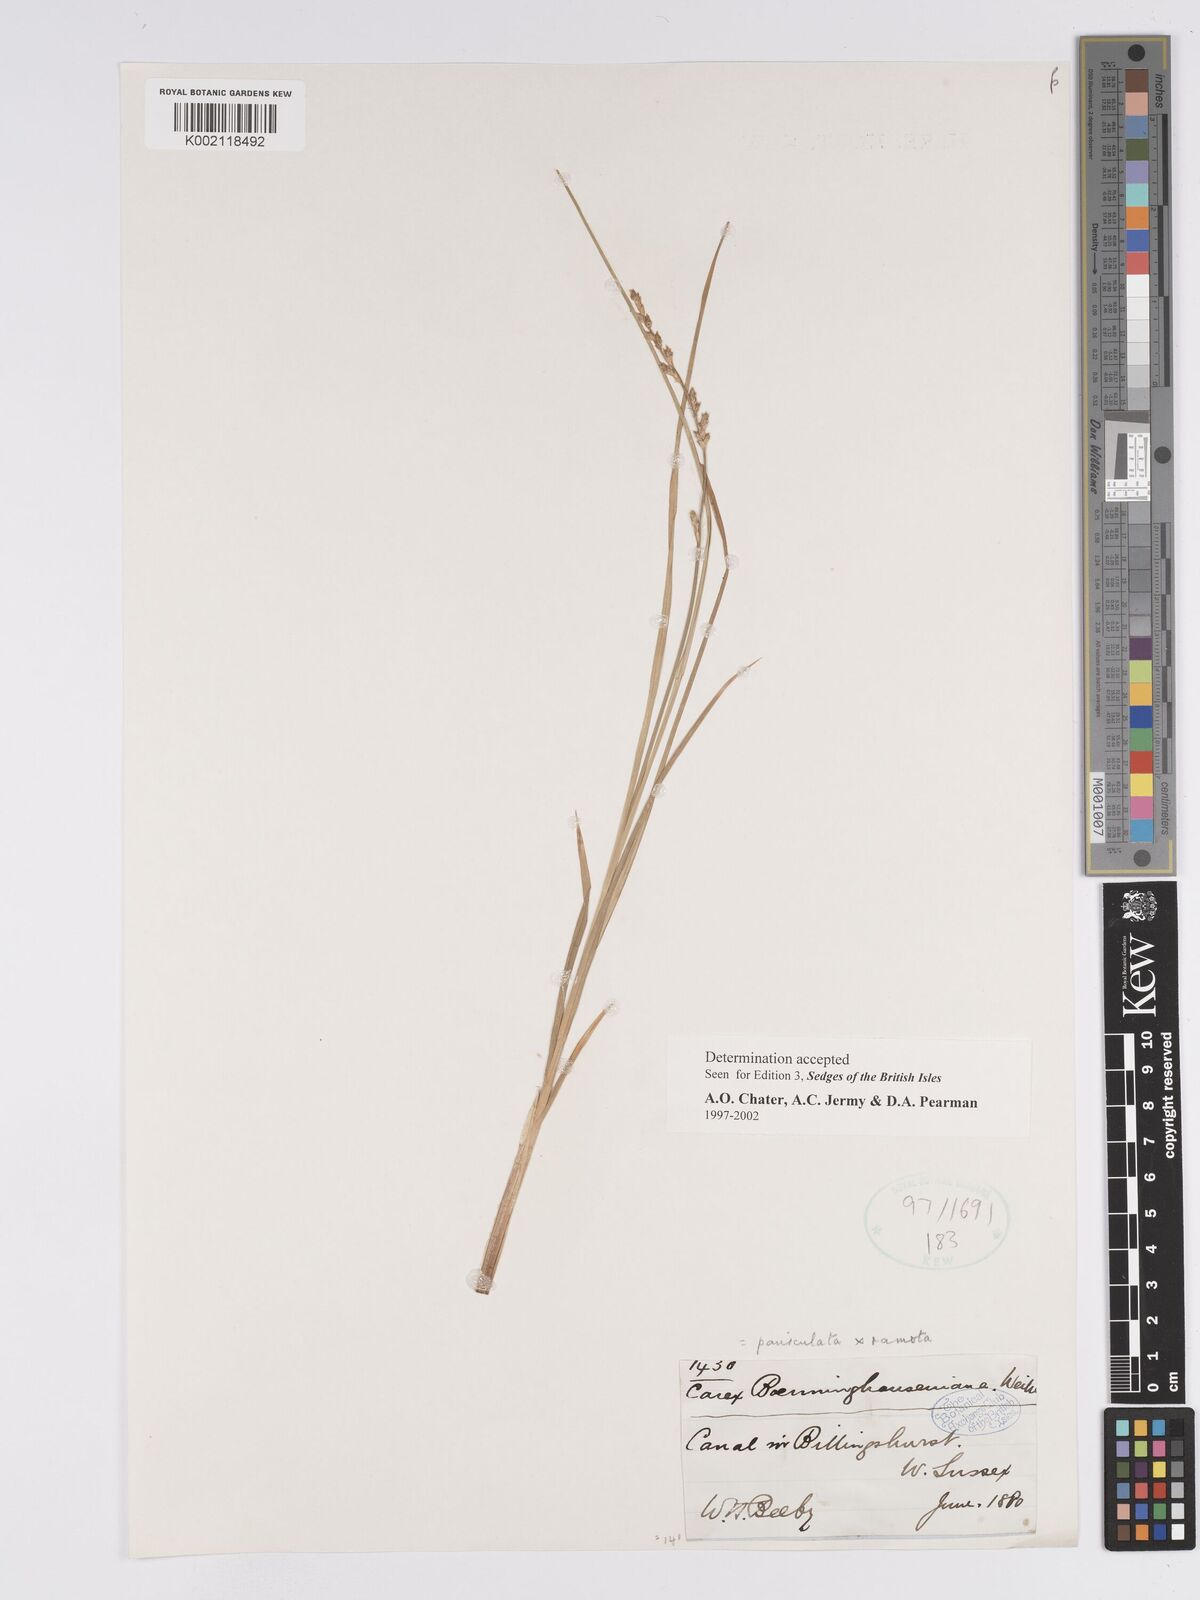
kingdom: Plantae
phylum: Tracheophyta
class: Liliopsida
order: Poales
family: Cyperaceae
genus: Carex
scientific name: Carex boenninghausiana
